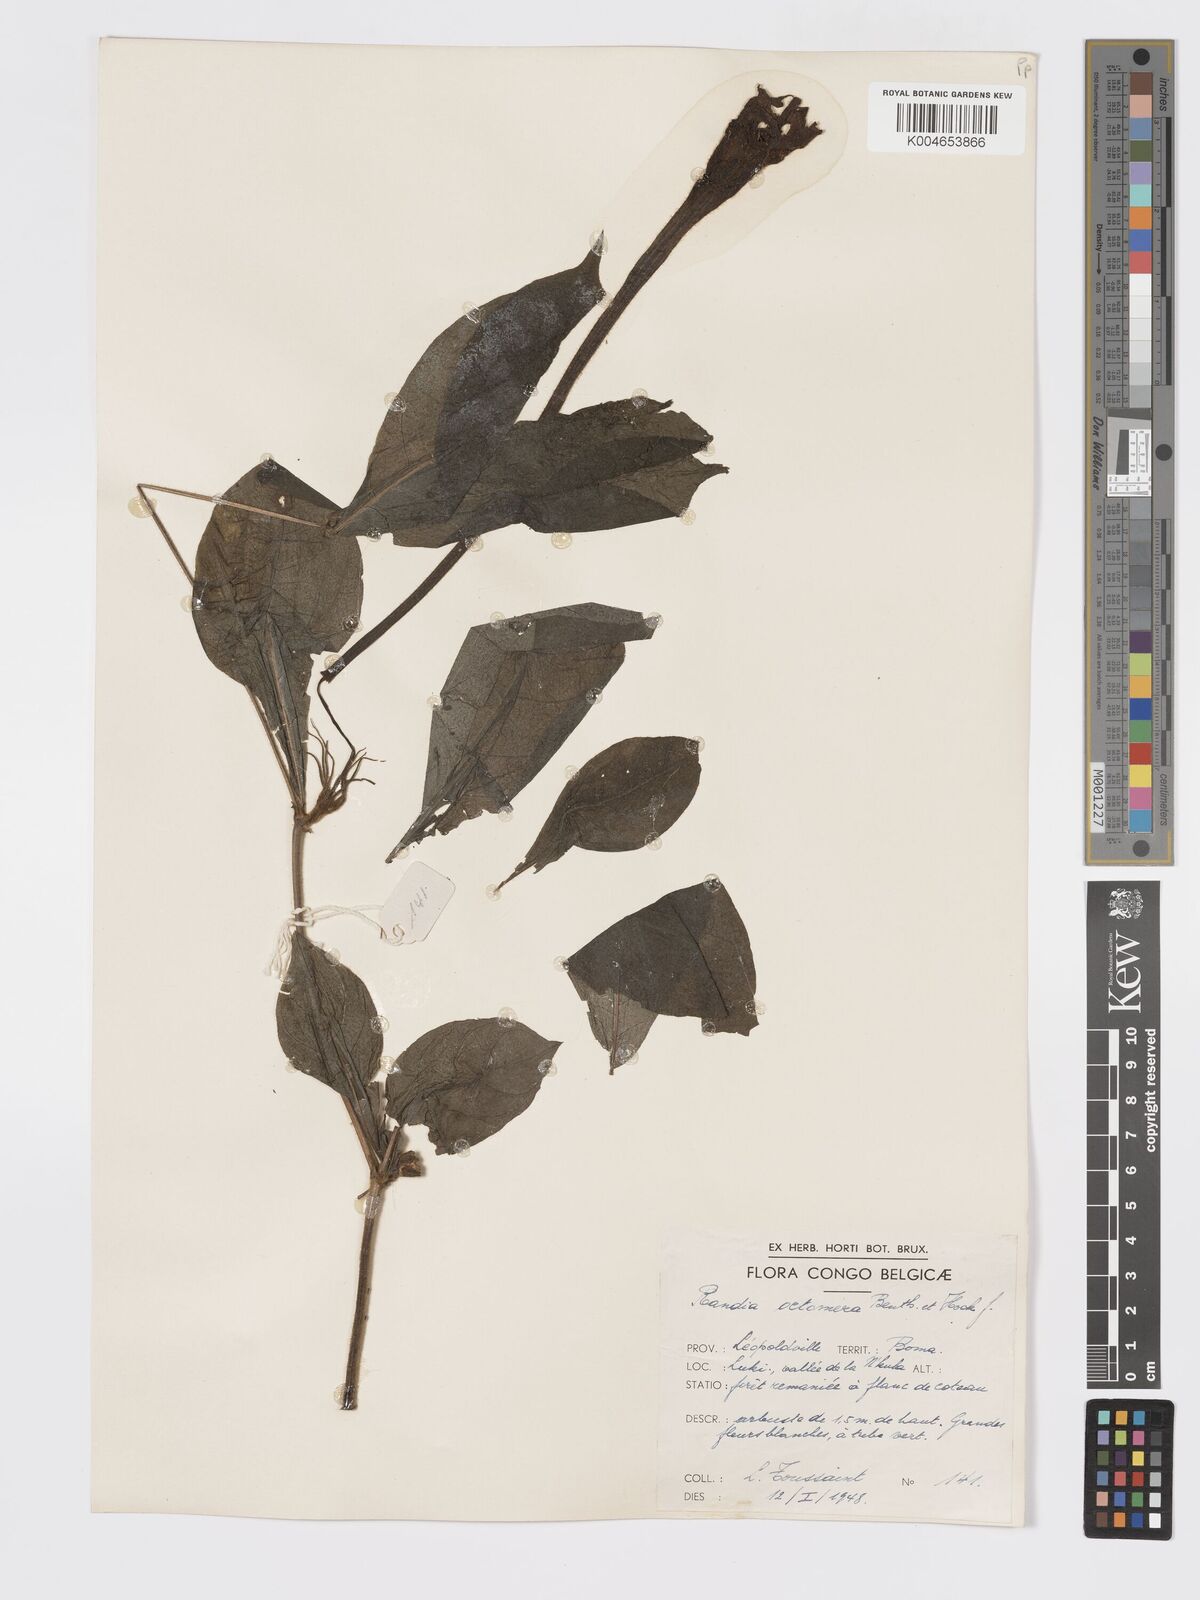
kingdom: Plantae
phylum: Tracheophyta
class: Magnoliopsida
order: Gentianales
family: Rubiaceae
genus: Rothmannia
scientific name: Rothmannia octomera
